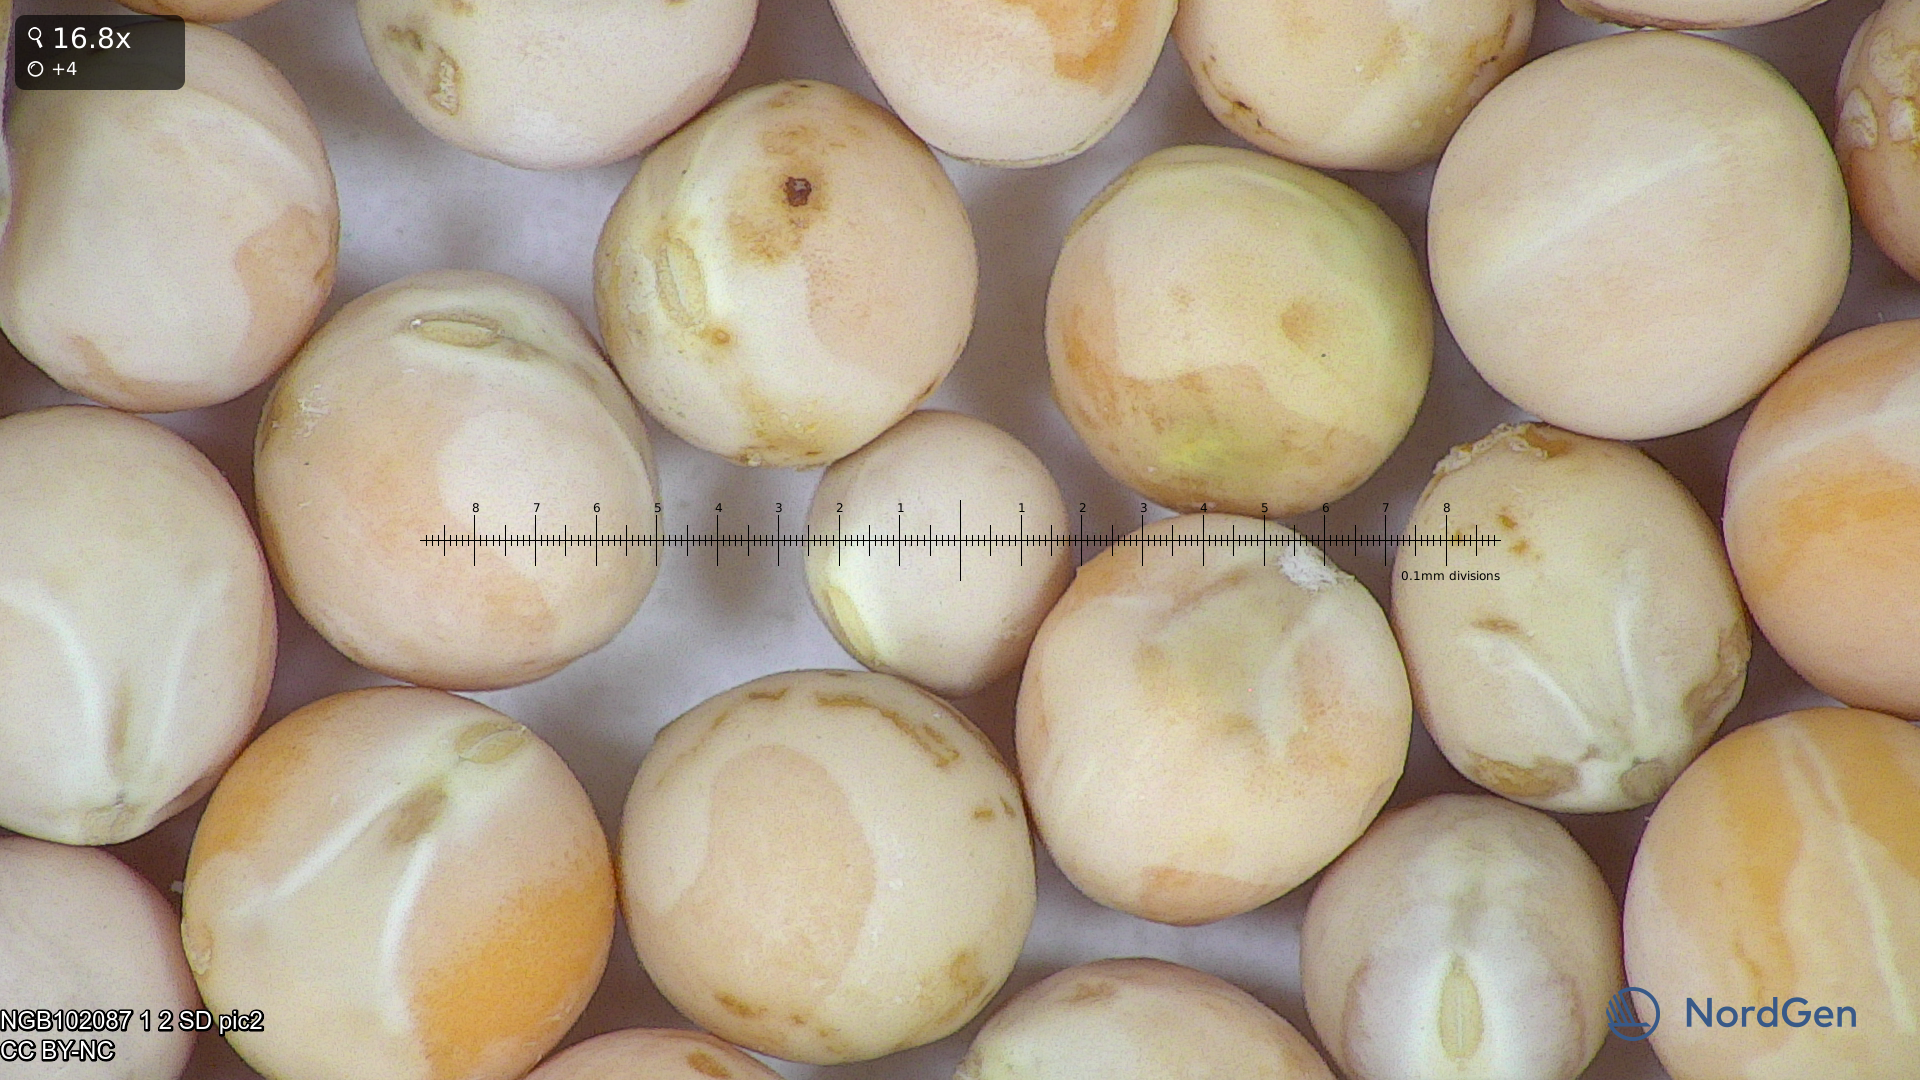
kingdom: Plantae
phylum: Tracheophyta
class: Magnoliopsida
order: Fabales
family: Fabaceae
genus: Lathyrus
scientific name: Lathyrus oleraceus
